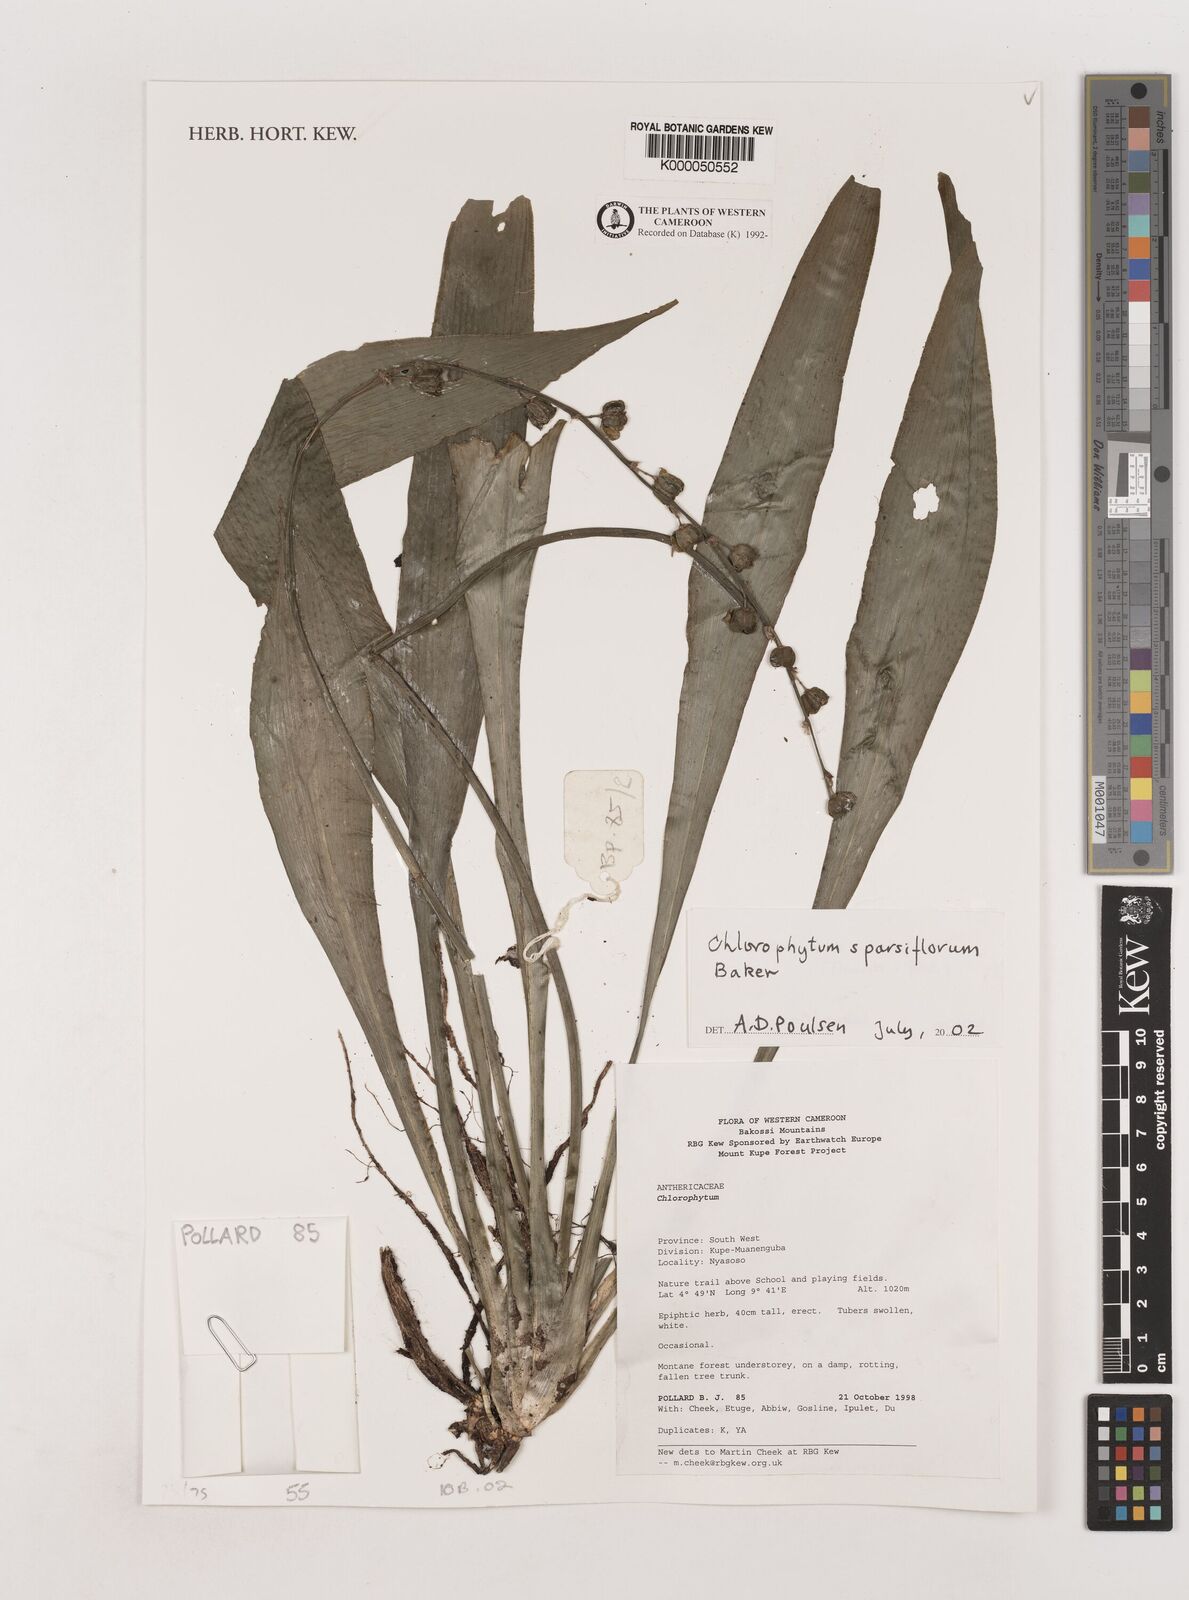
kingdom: Plantae
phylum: Tracheophyta
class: Liliopsida
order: Asparagales
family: Asparagaceae
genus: Chlorophytum
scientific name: Chlorophytum sparsiflorum
